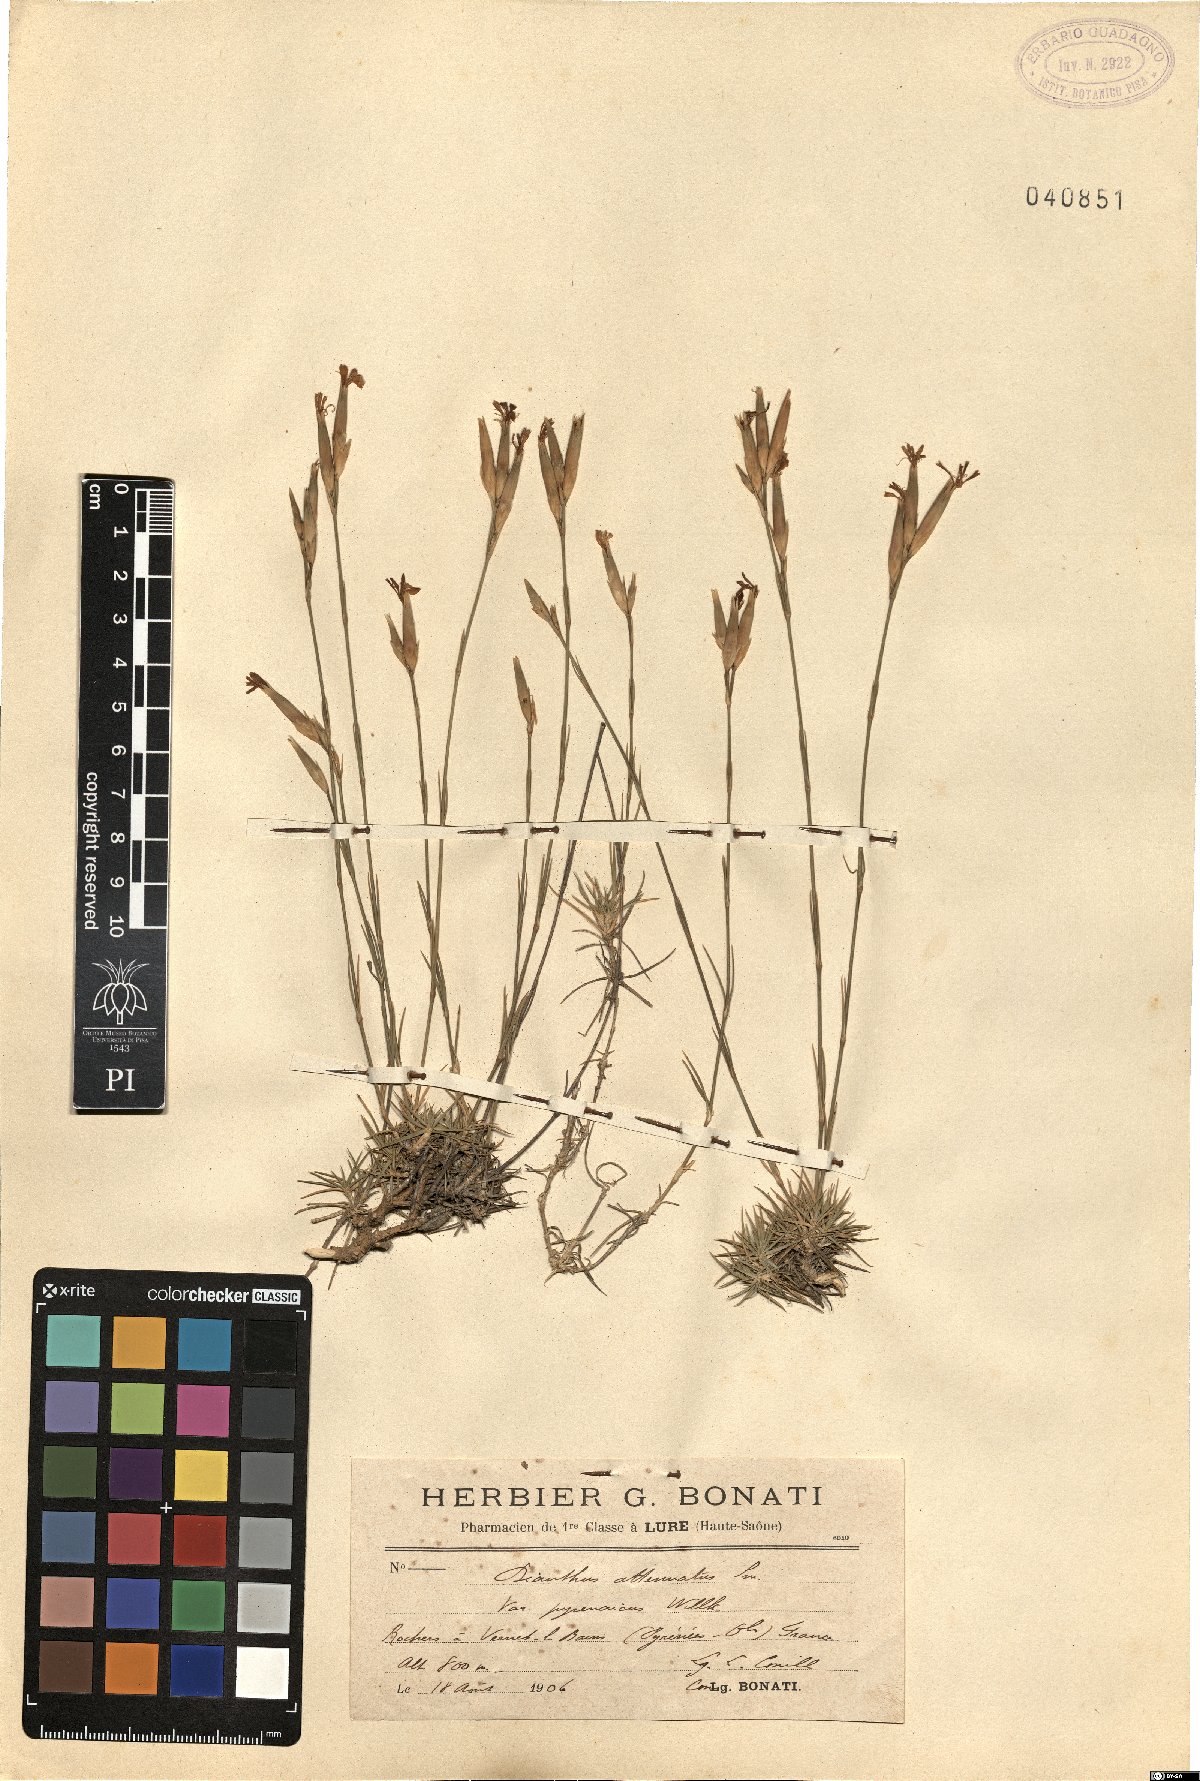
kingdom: Plantae
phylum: Tracheophyta
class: Magnoliopsida
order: Caryophyllales
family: Caryophyllaceae
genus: Dianthus
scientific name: Dianthus pyrenaicus
